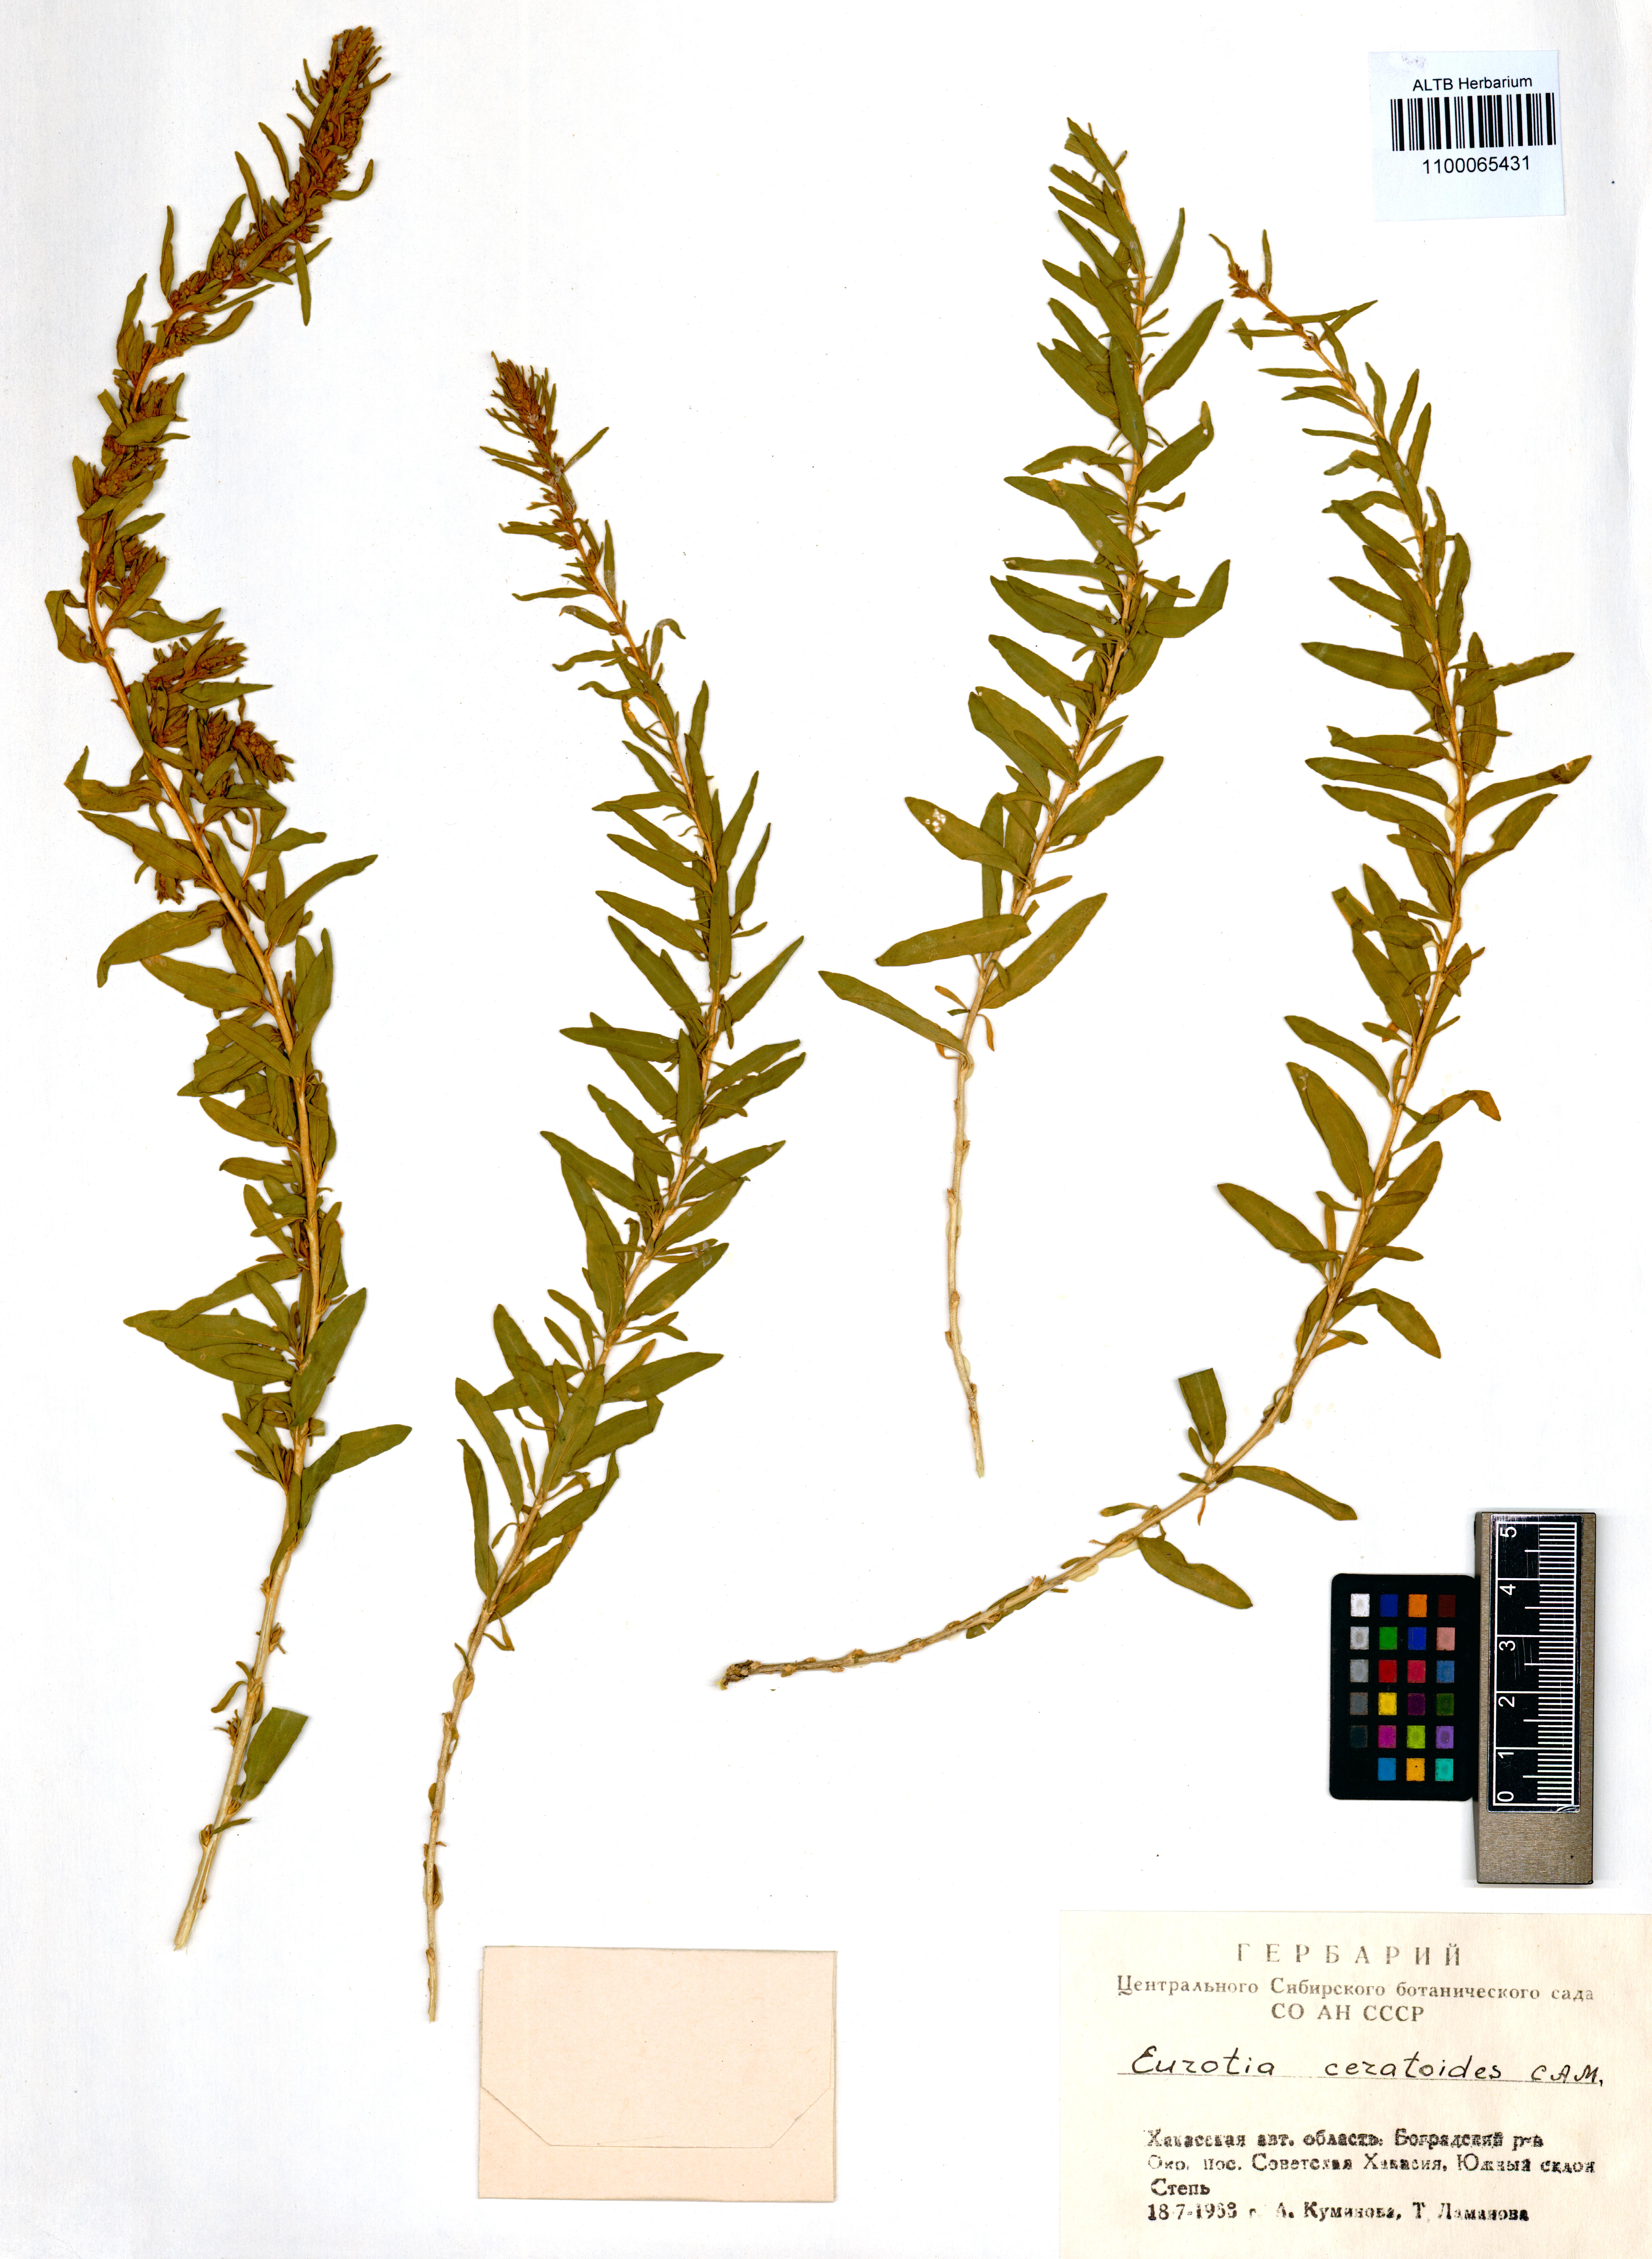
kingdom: Plantae
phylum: Tracheophyta
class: Magnoliopsida
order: Caryophyllales
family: Amaranthaceae
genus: Krascheninnikovia
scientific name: Krascheninnikovia ceratoides
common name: Pamirian winterfat
